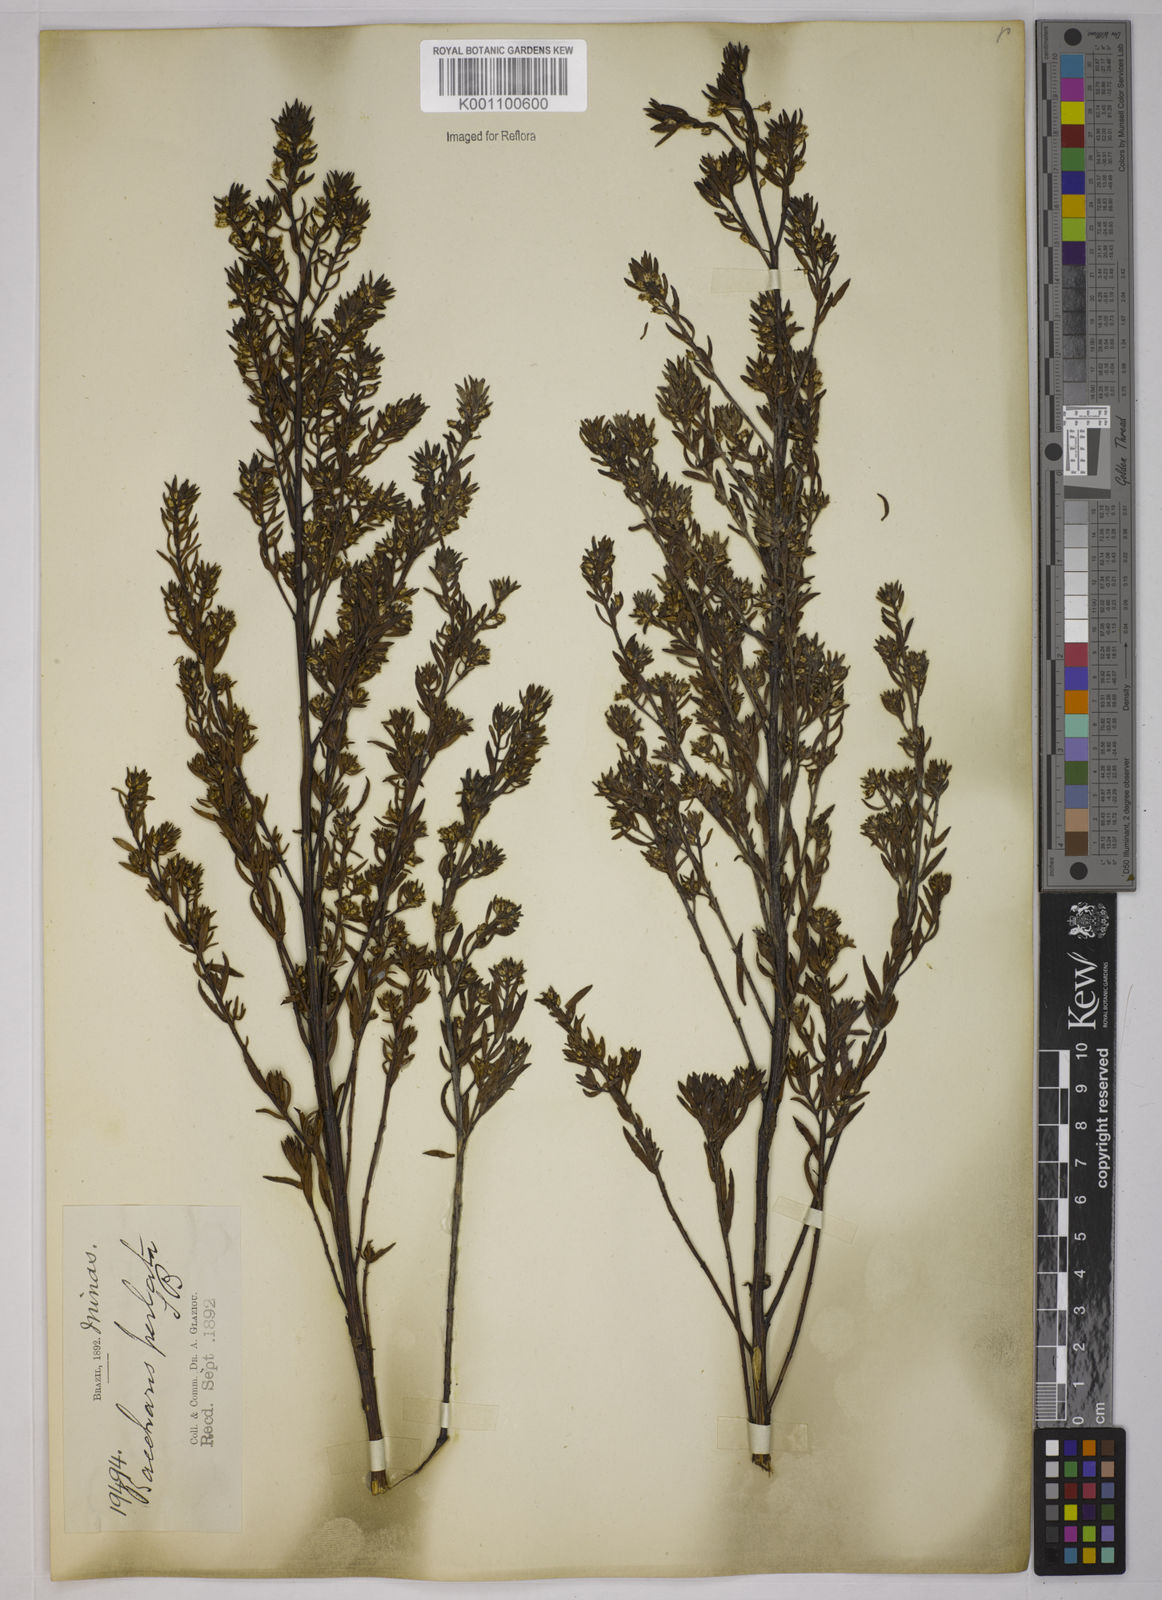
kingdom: Plantae
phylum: Tracheophyta
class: Magnoliopsida
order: Asterales
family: Asteraceae
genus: Baccharis
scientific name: Baccharis xiphophylla
